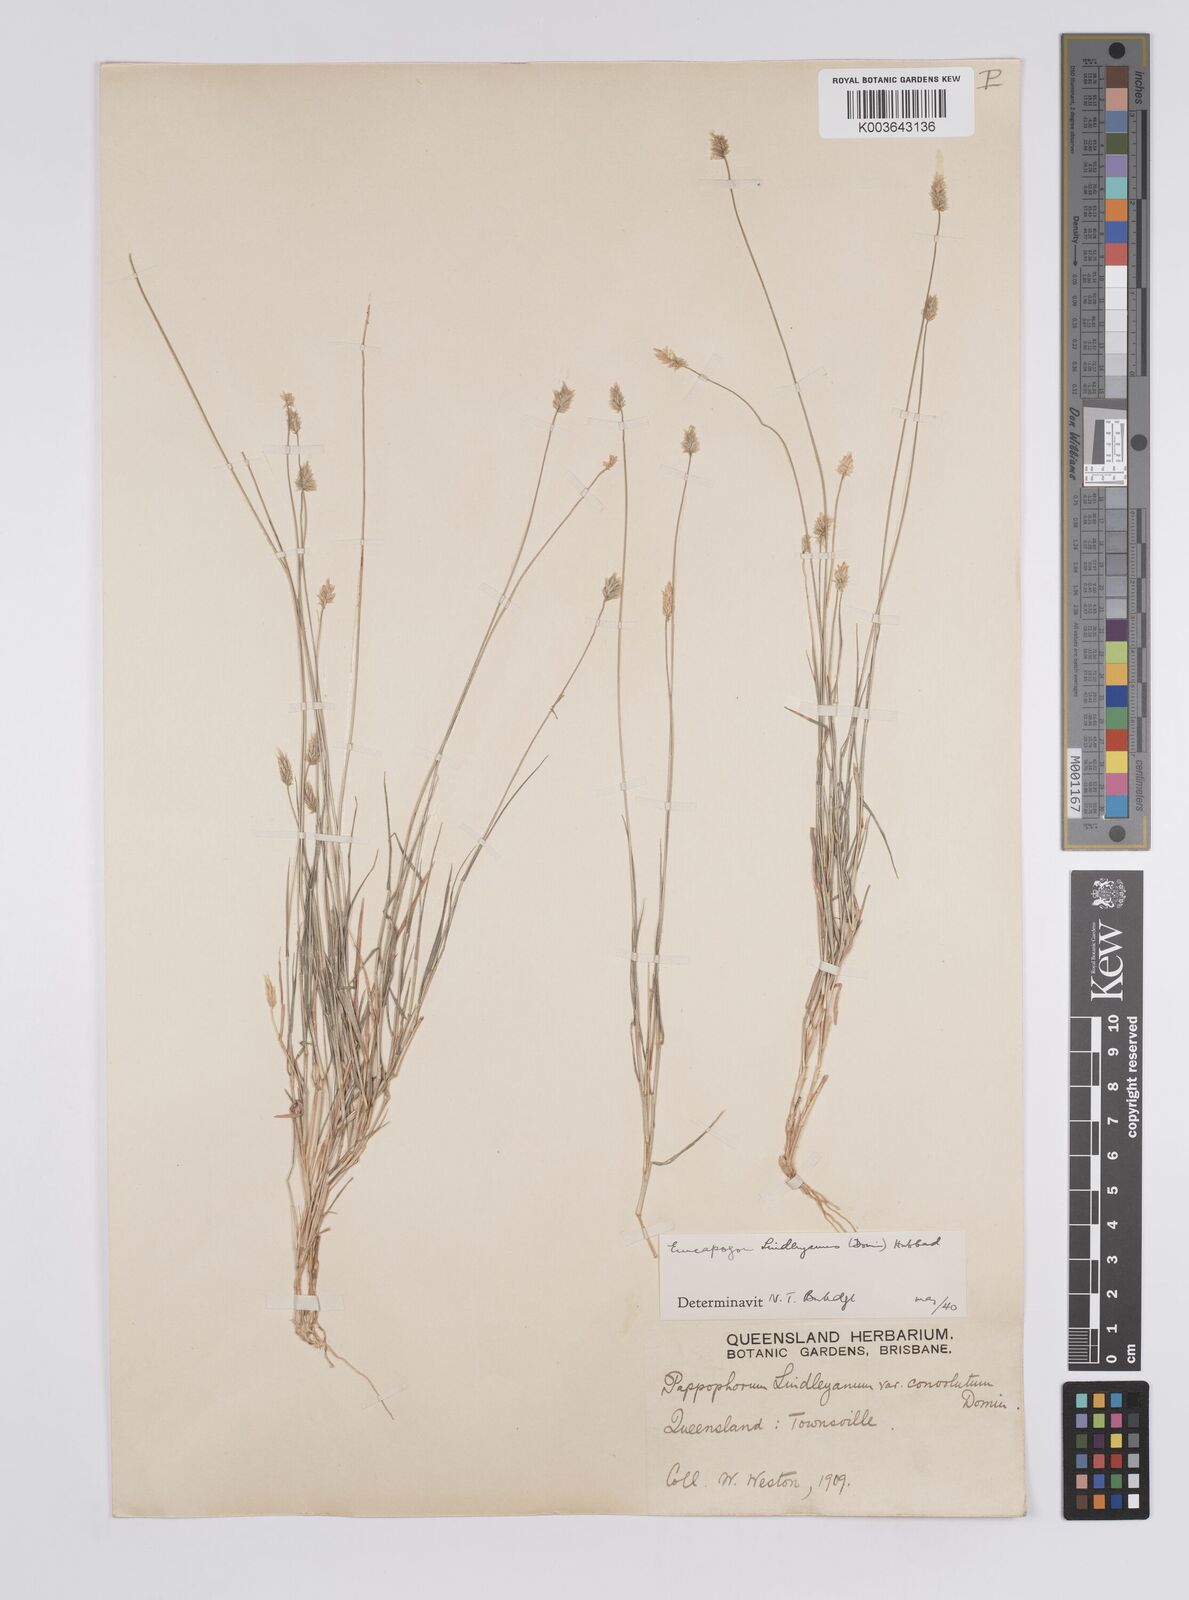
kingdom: Plantae
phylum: Tracheophyta
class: Liliopsida
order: Poales
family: Poaceae
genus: Enneapogon
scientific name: Enneapogon lindleyanus
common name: Conetop nineawn
